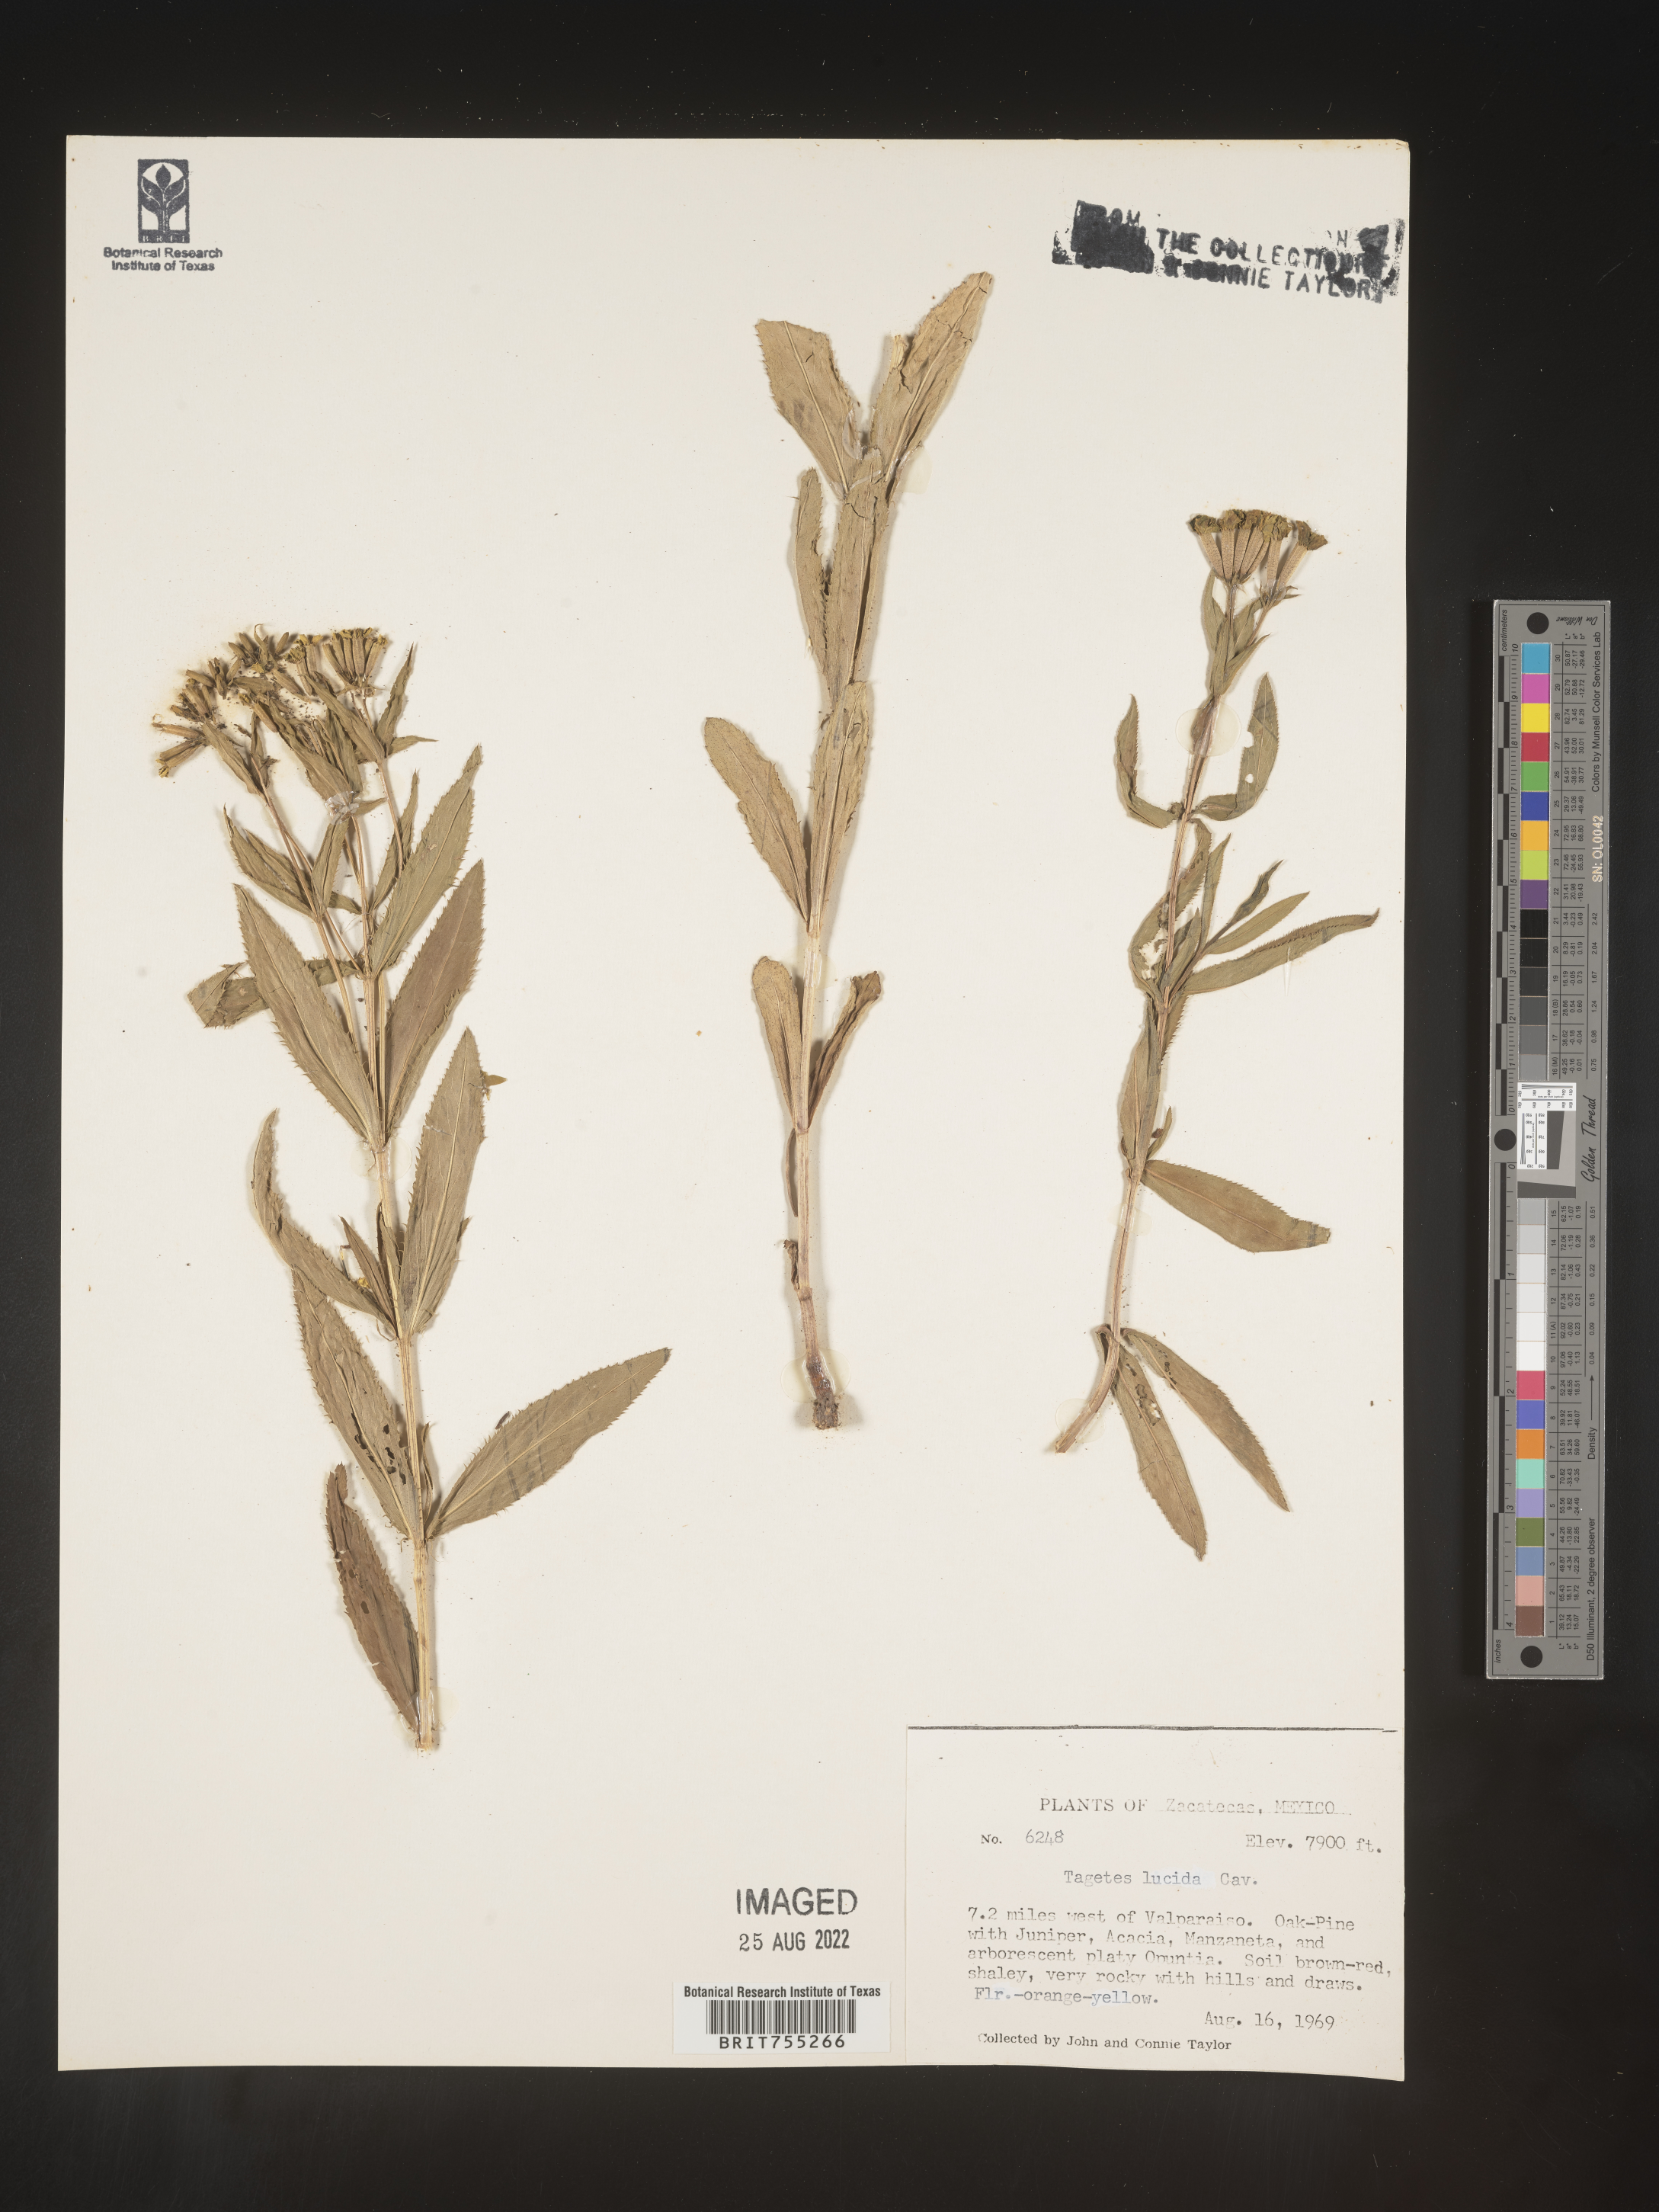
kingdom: Plantae
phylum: Tracheophyta
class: Magnoliopsida
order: Asterales
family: Asteraceae
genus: Tagetes
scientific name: Tagetes lucida
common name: Sweetscented marigold
